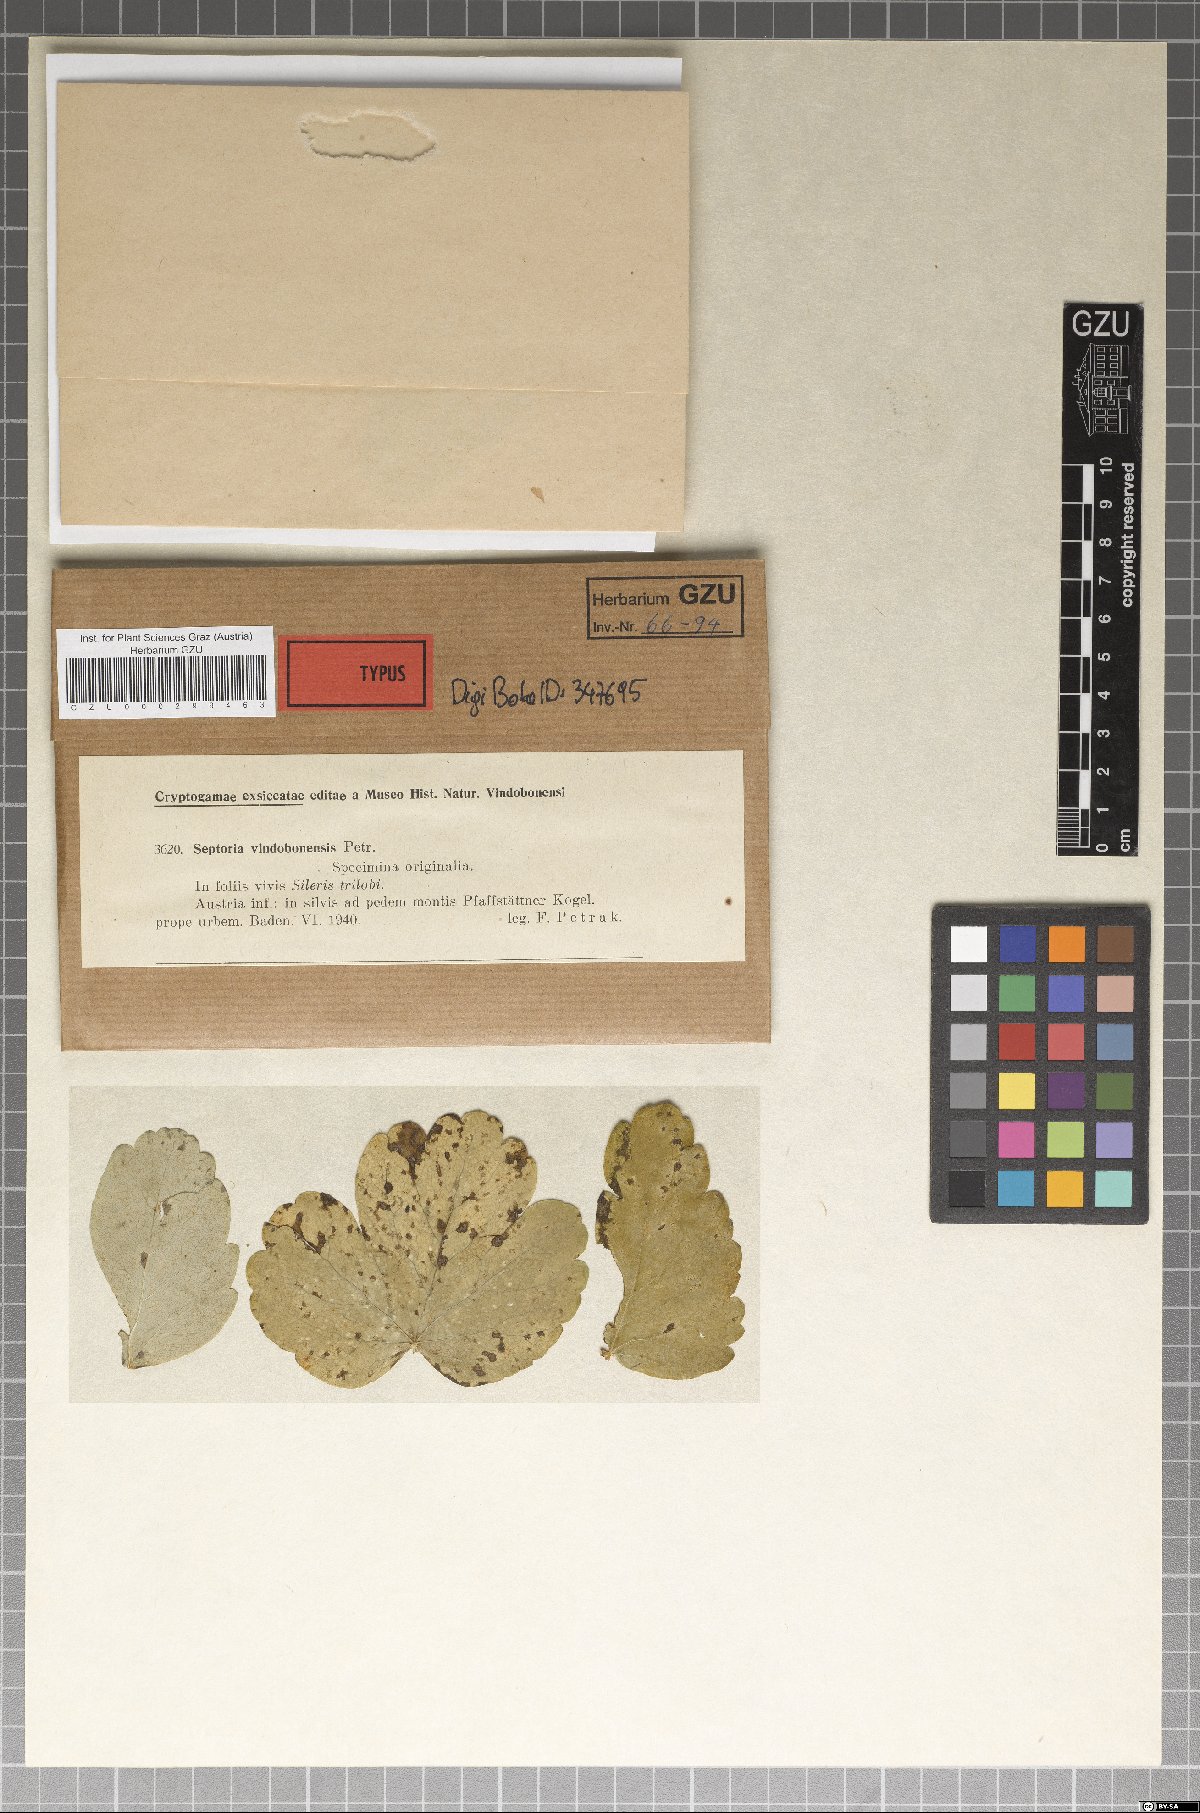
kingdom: Fungi
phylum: Ascomycota
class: Dothideomycetes
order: Mycosphaerellales
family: Mycosphaerellaceae
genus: Septoria
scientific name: Septoria
